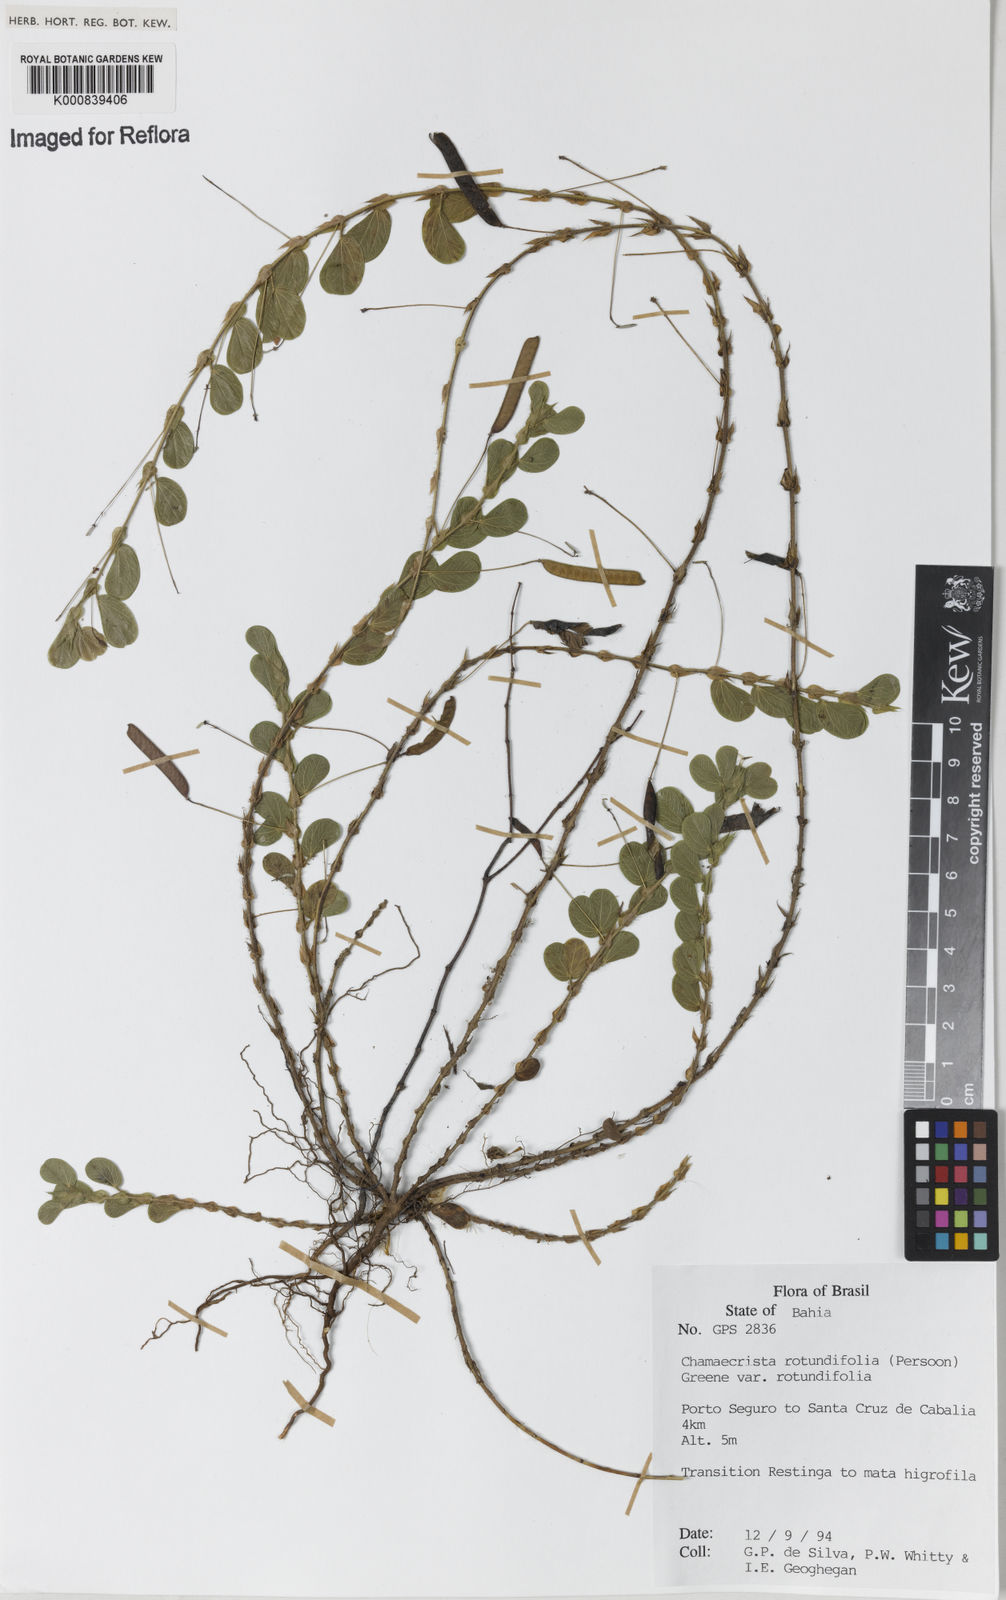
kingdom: Plantae
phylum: Tracheophyta
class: Magnoliopsida
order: Fabales
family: Fabaceae
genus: Chamaecrista
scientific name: Chamaecrista rotundifolia
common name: Round-leaf cassia
